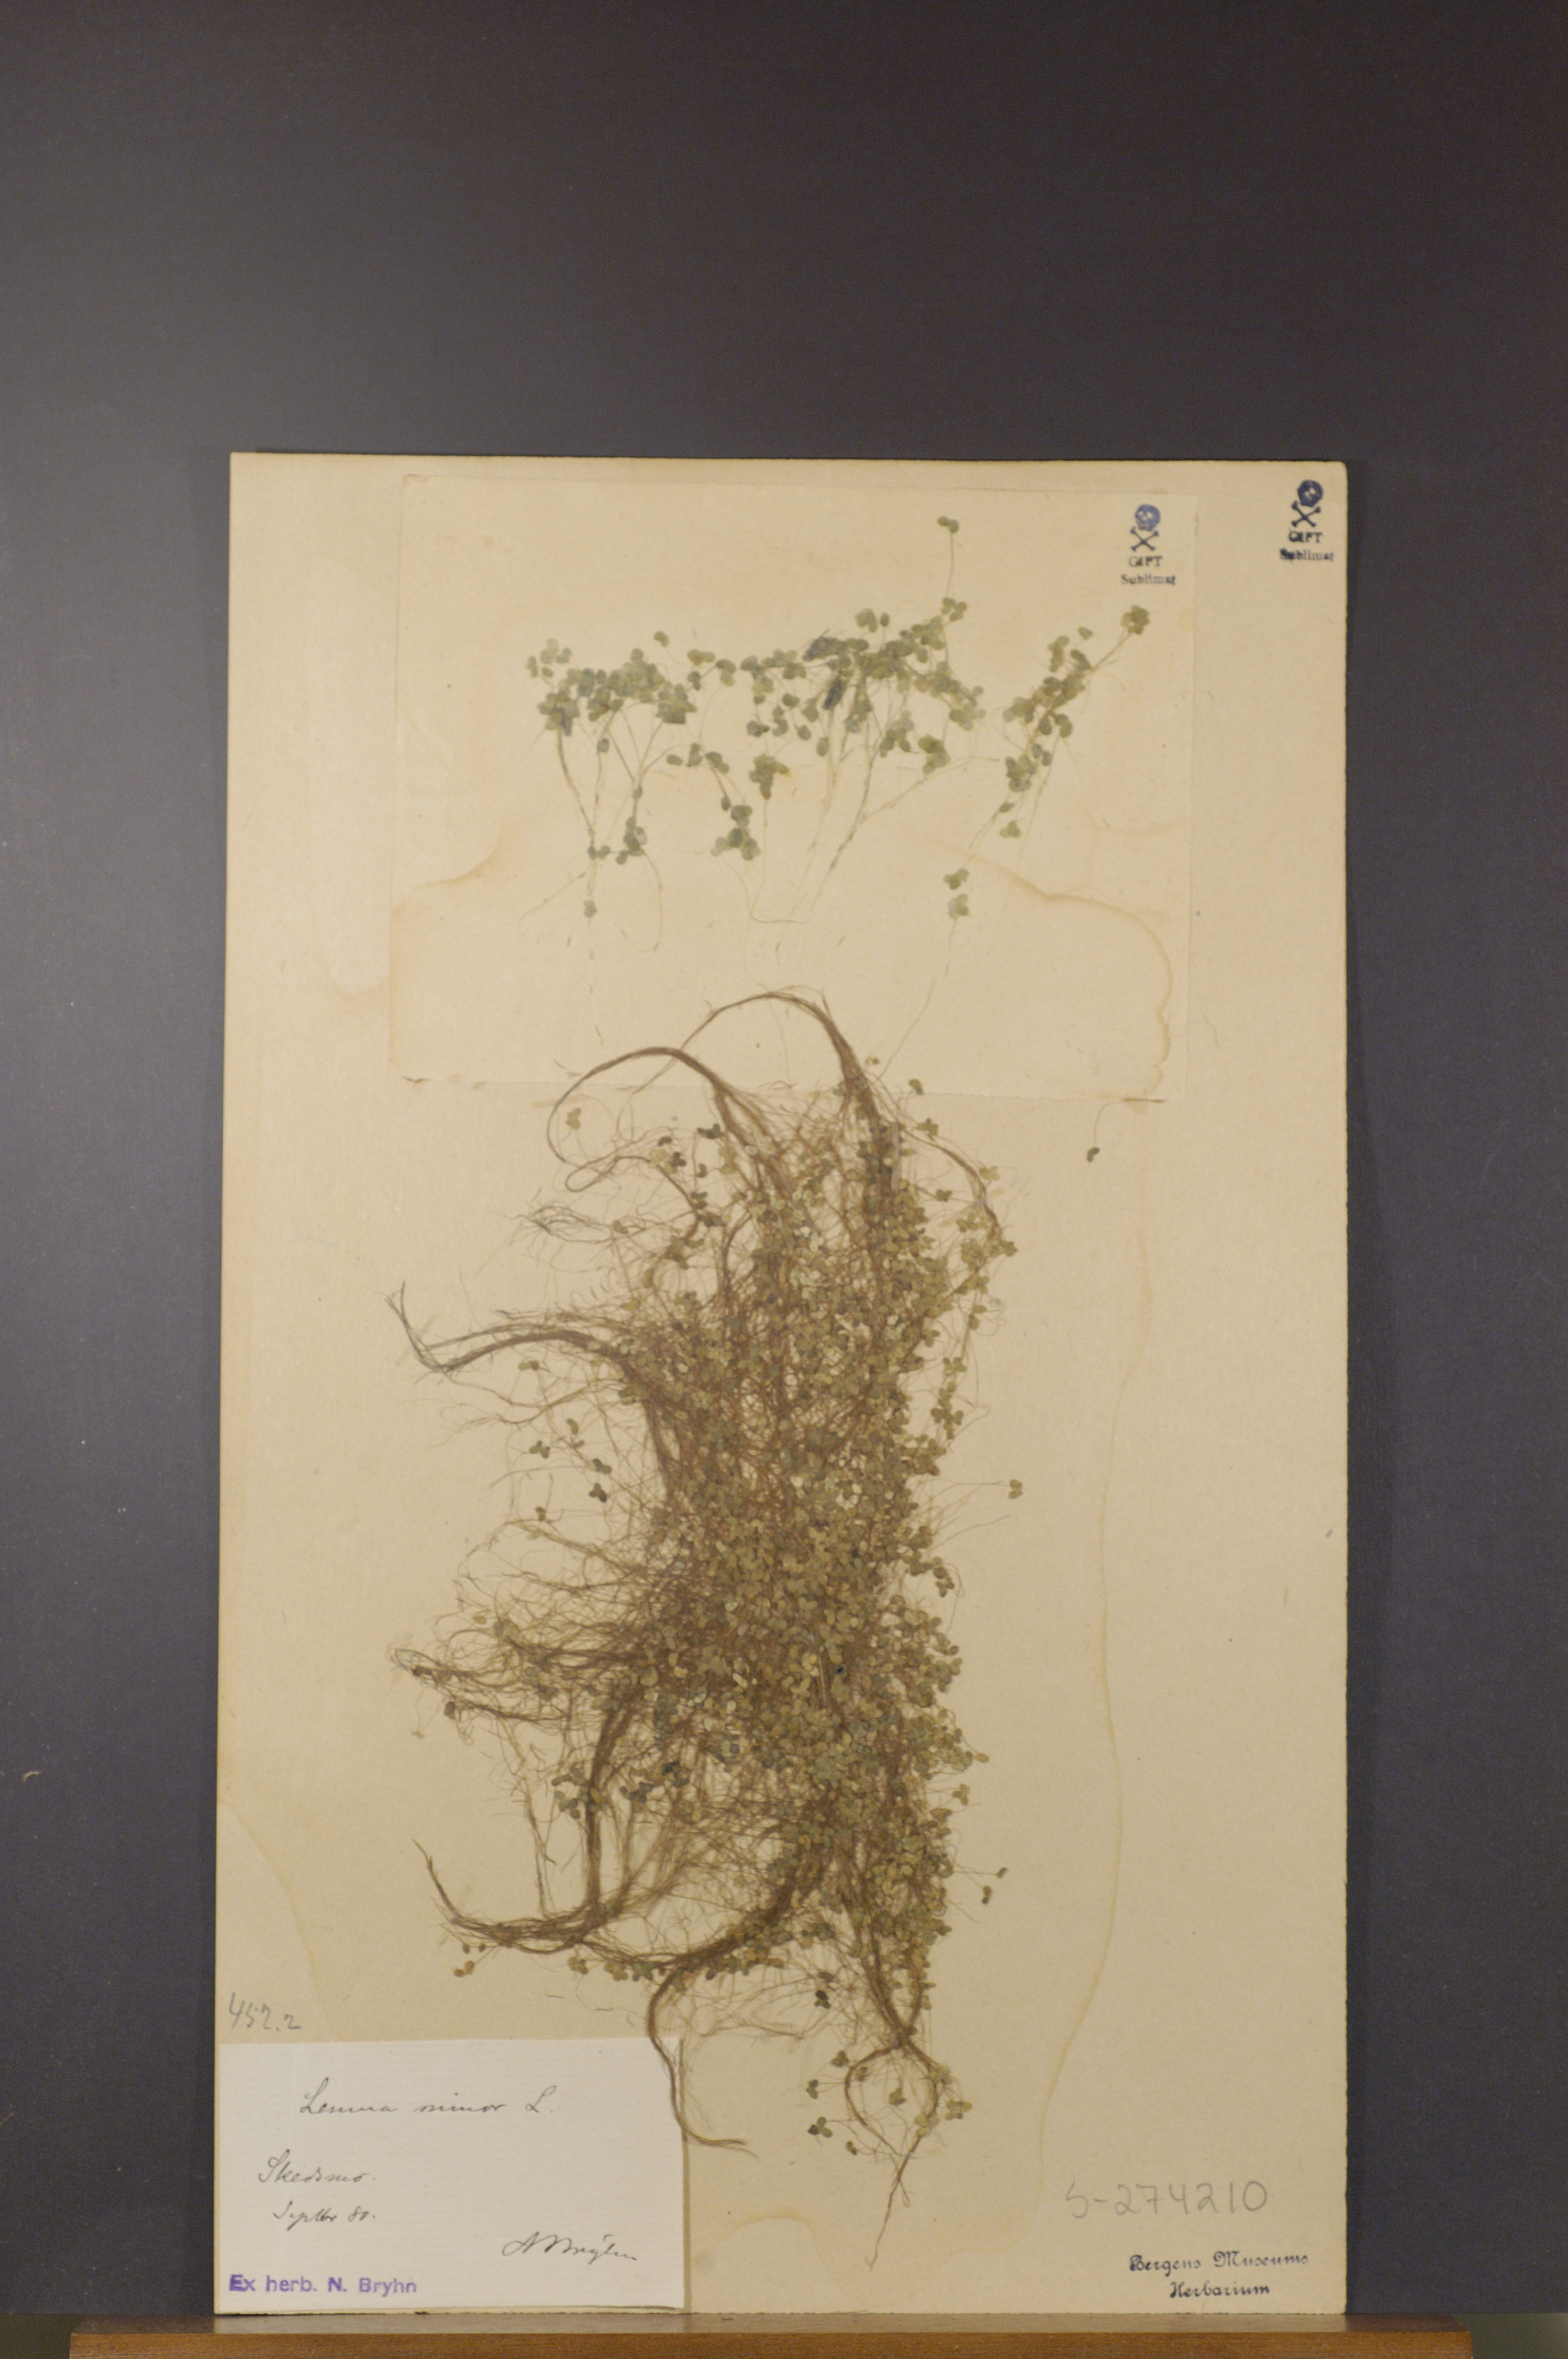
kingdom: Plantae
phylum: Tracheophyta
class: Liliopsida
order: Alismatales
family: Araceae
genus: Lemna
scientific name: Lemna minor
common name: Common duckweed
